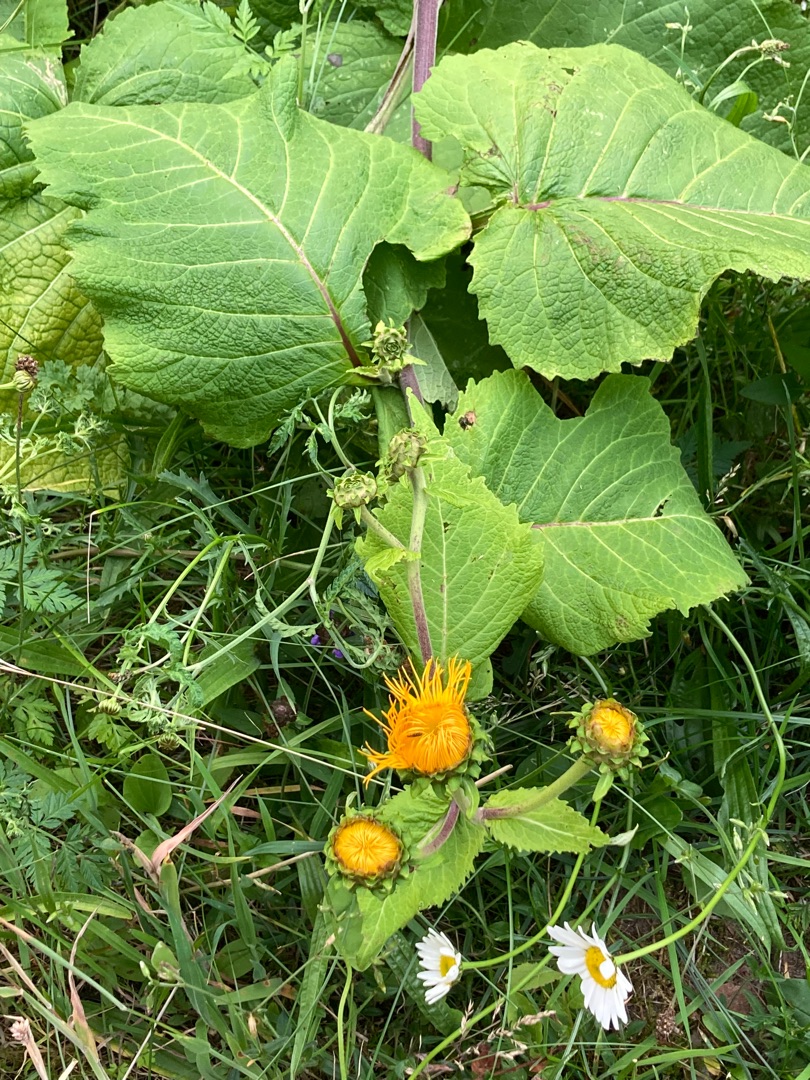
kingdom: Plantae
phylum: Tracheophyta
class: Magnoliopsida
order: Asterales
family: Asteraceae
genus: Telekia
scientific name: Telekia speciosa
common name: Tusindstråle
